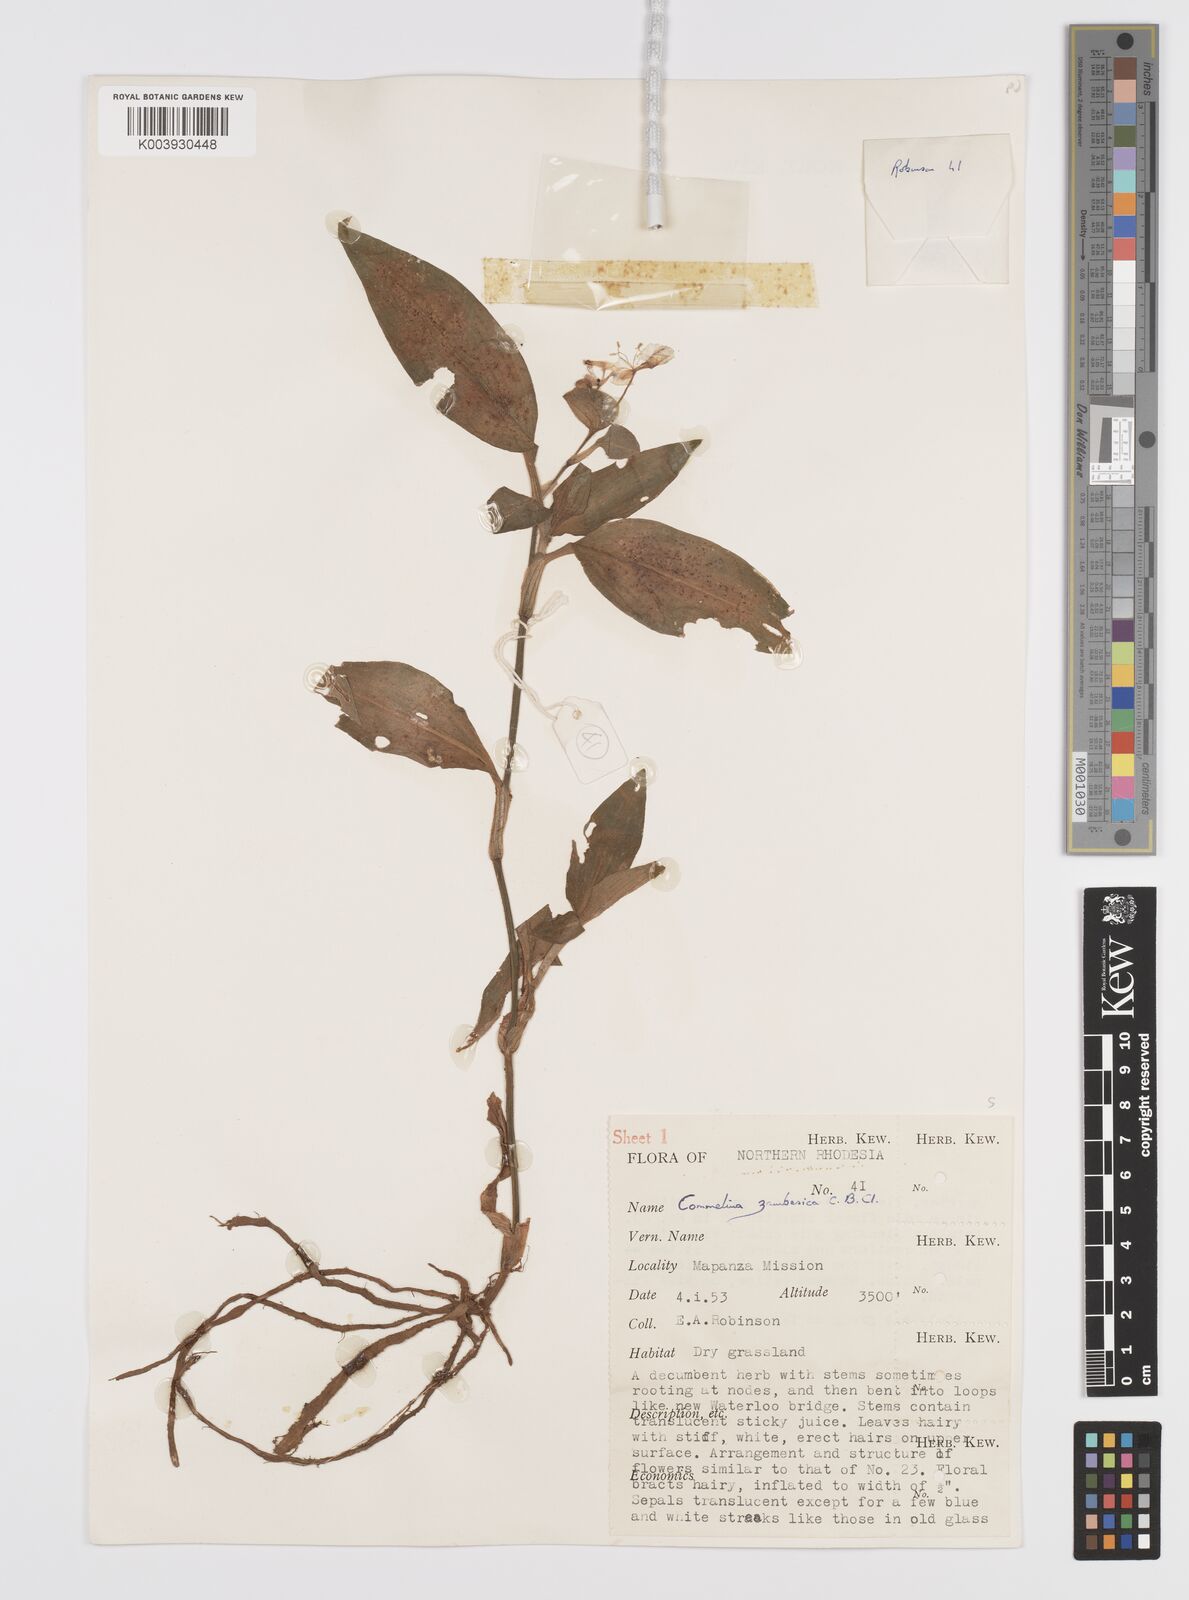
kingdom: Plantae
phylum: Tracheophyta
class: Liliopsida
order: Commelinales
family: Commelinaceae
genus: Commelina
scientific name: Commelina zambesica
